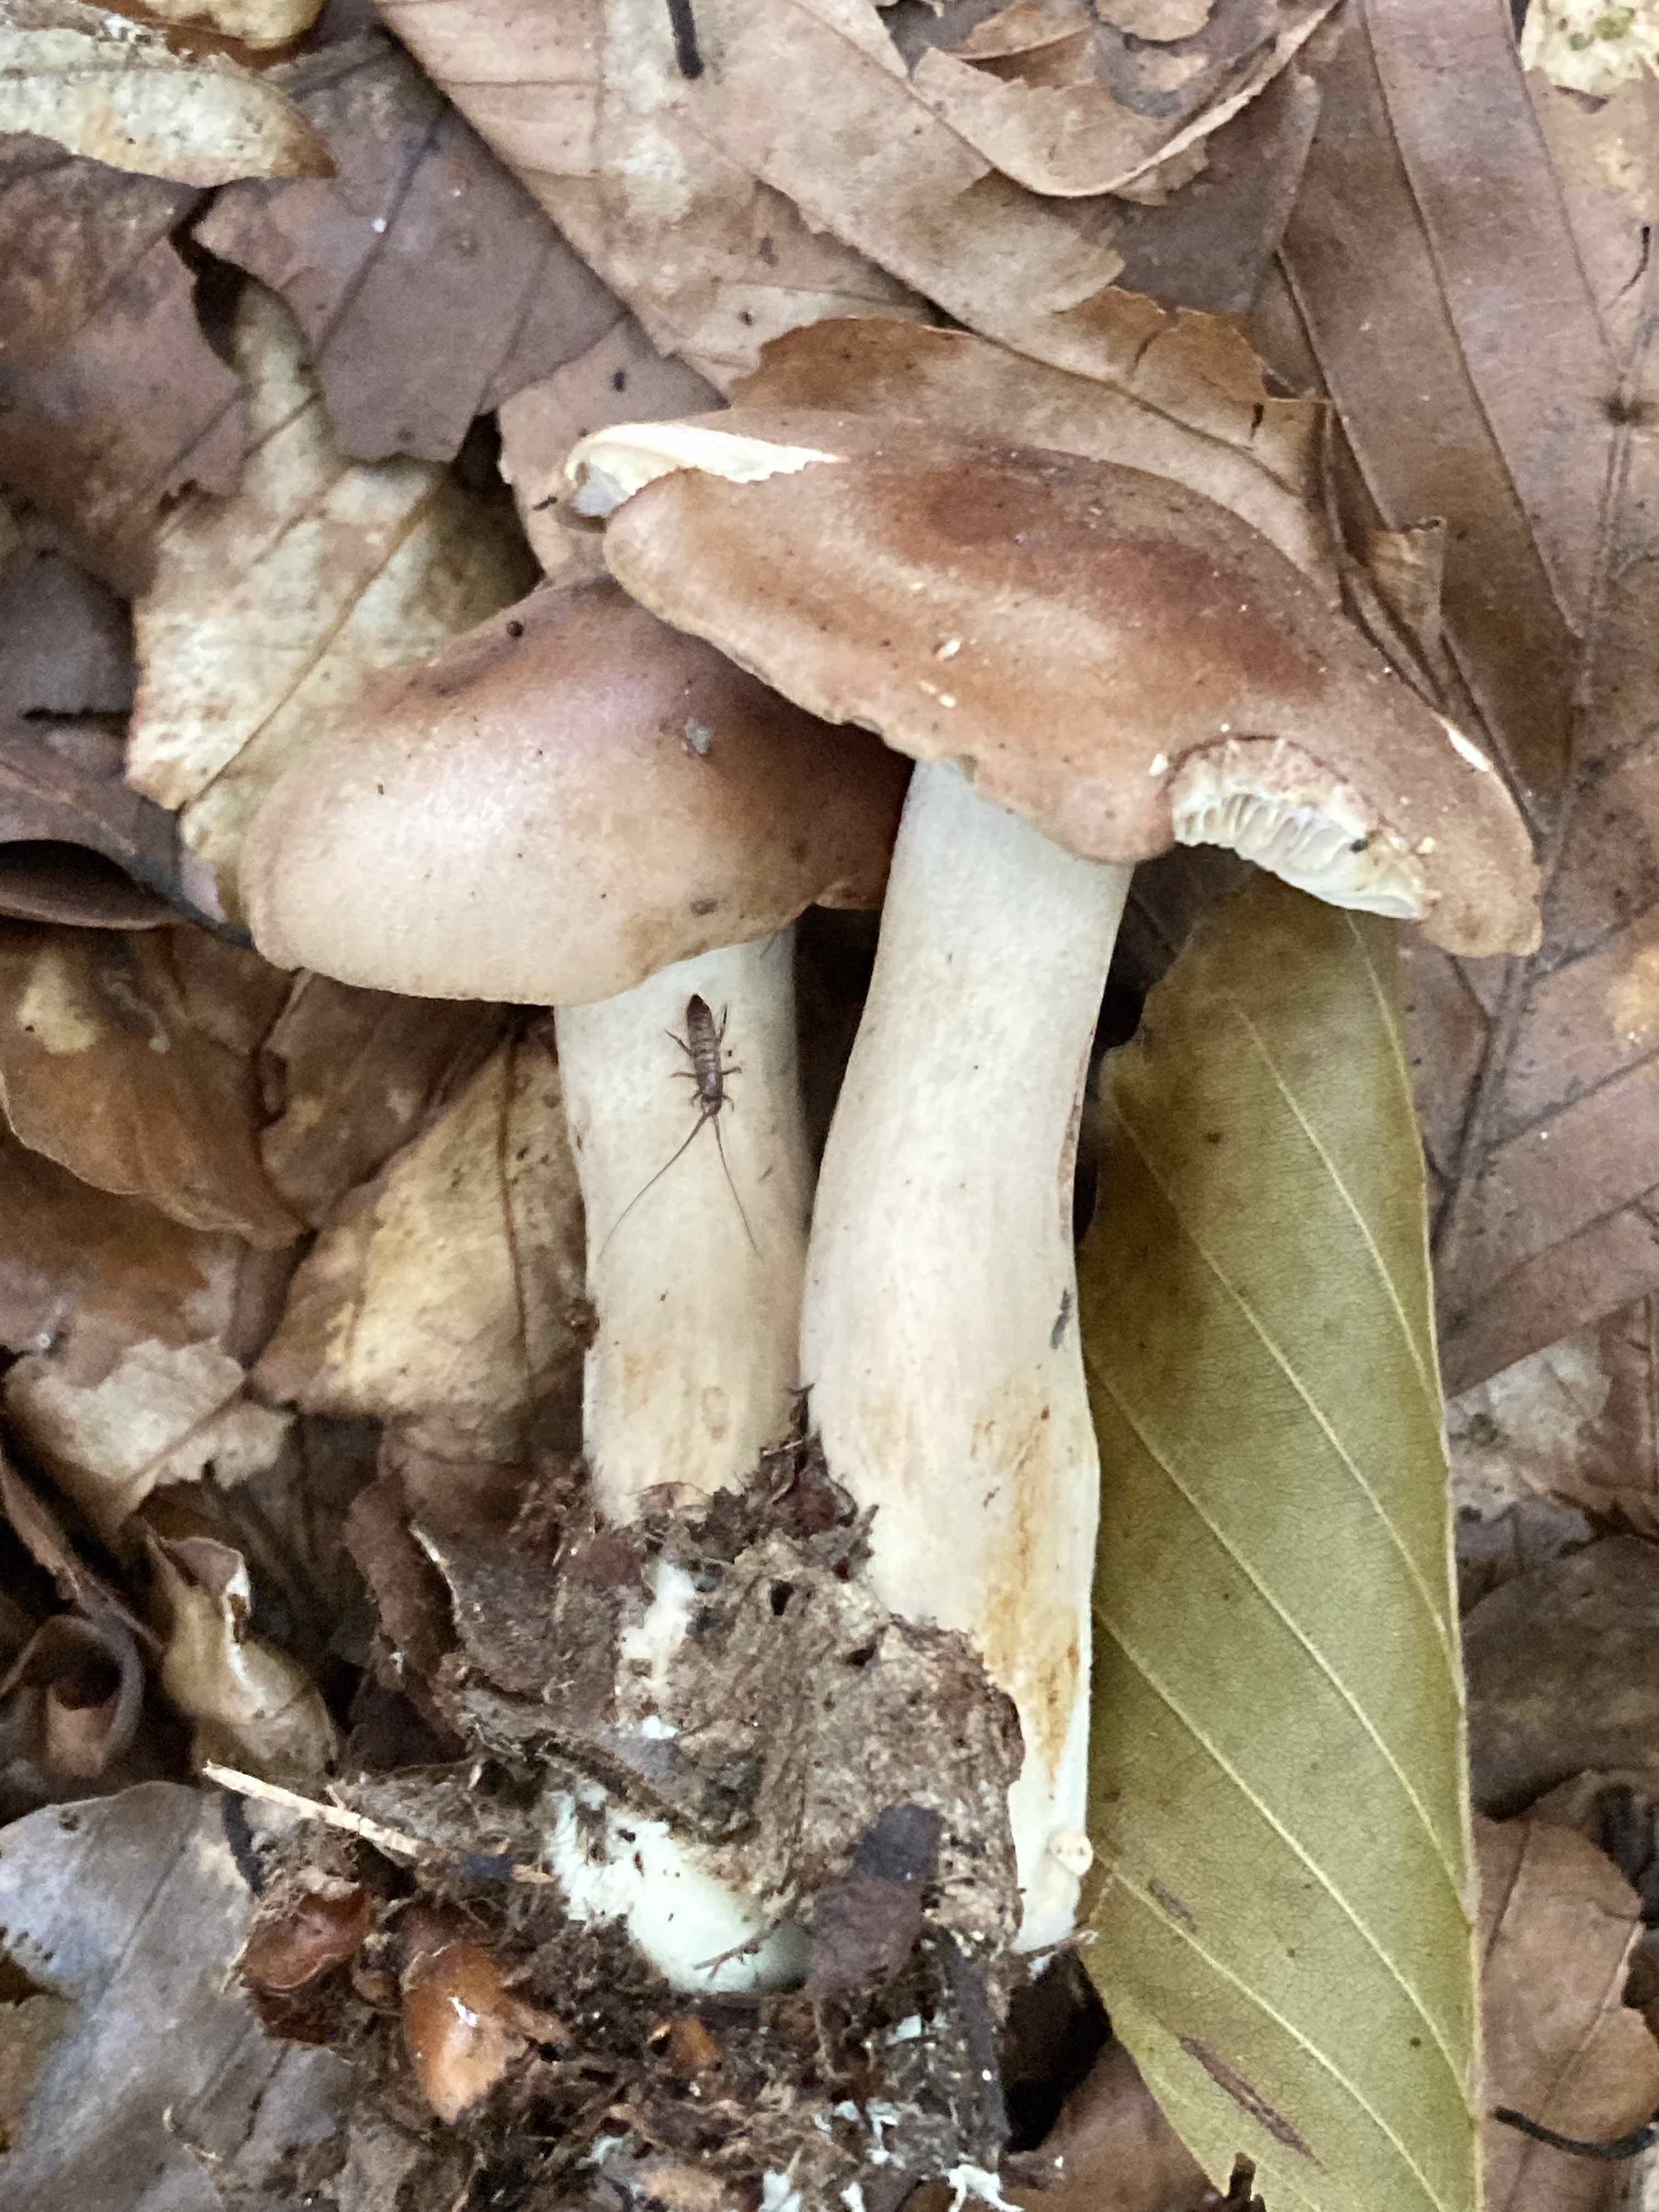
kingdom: Fungi
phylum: Basidiomycota
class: Agaricomycetes
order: Agaricales
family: Tricholomataceae
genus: Tricholoma
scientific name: Tricholoma ustale
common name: sveden ridderhat
